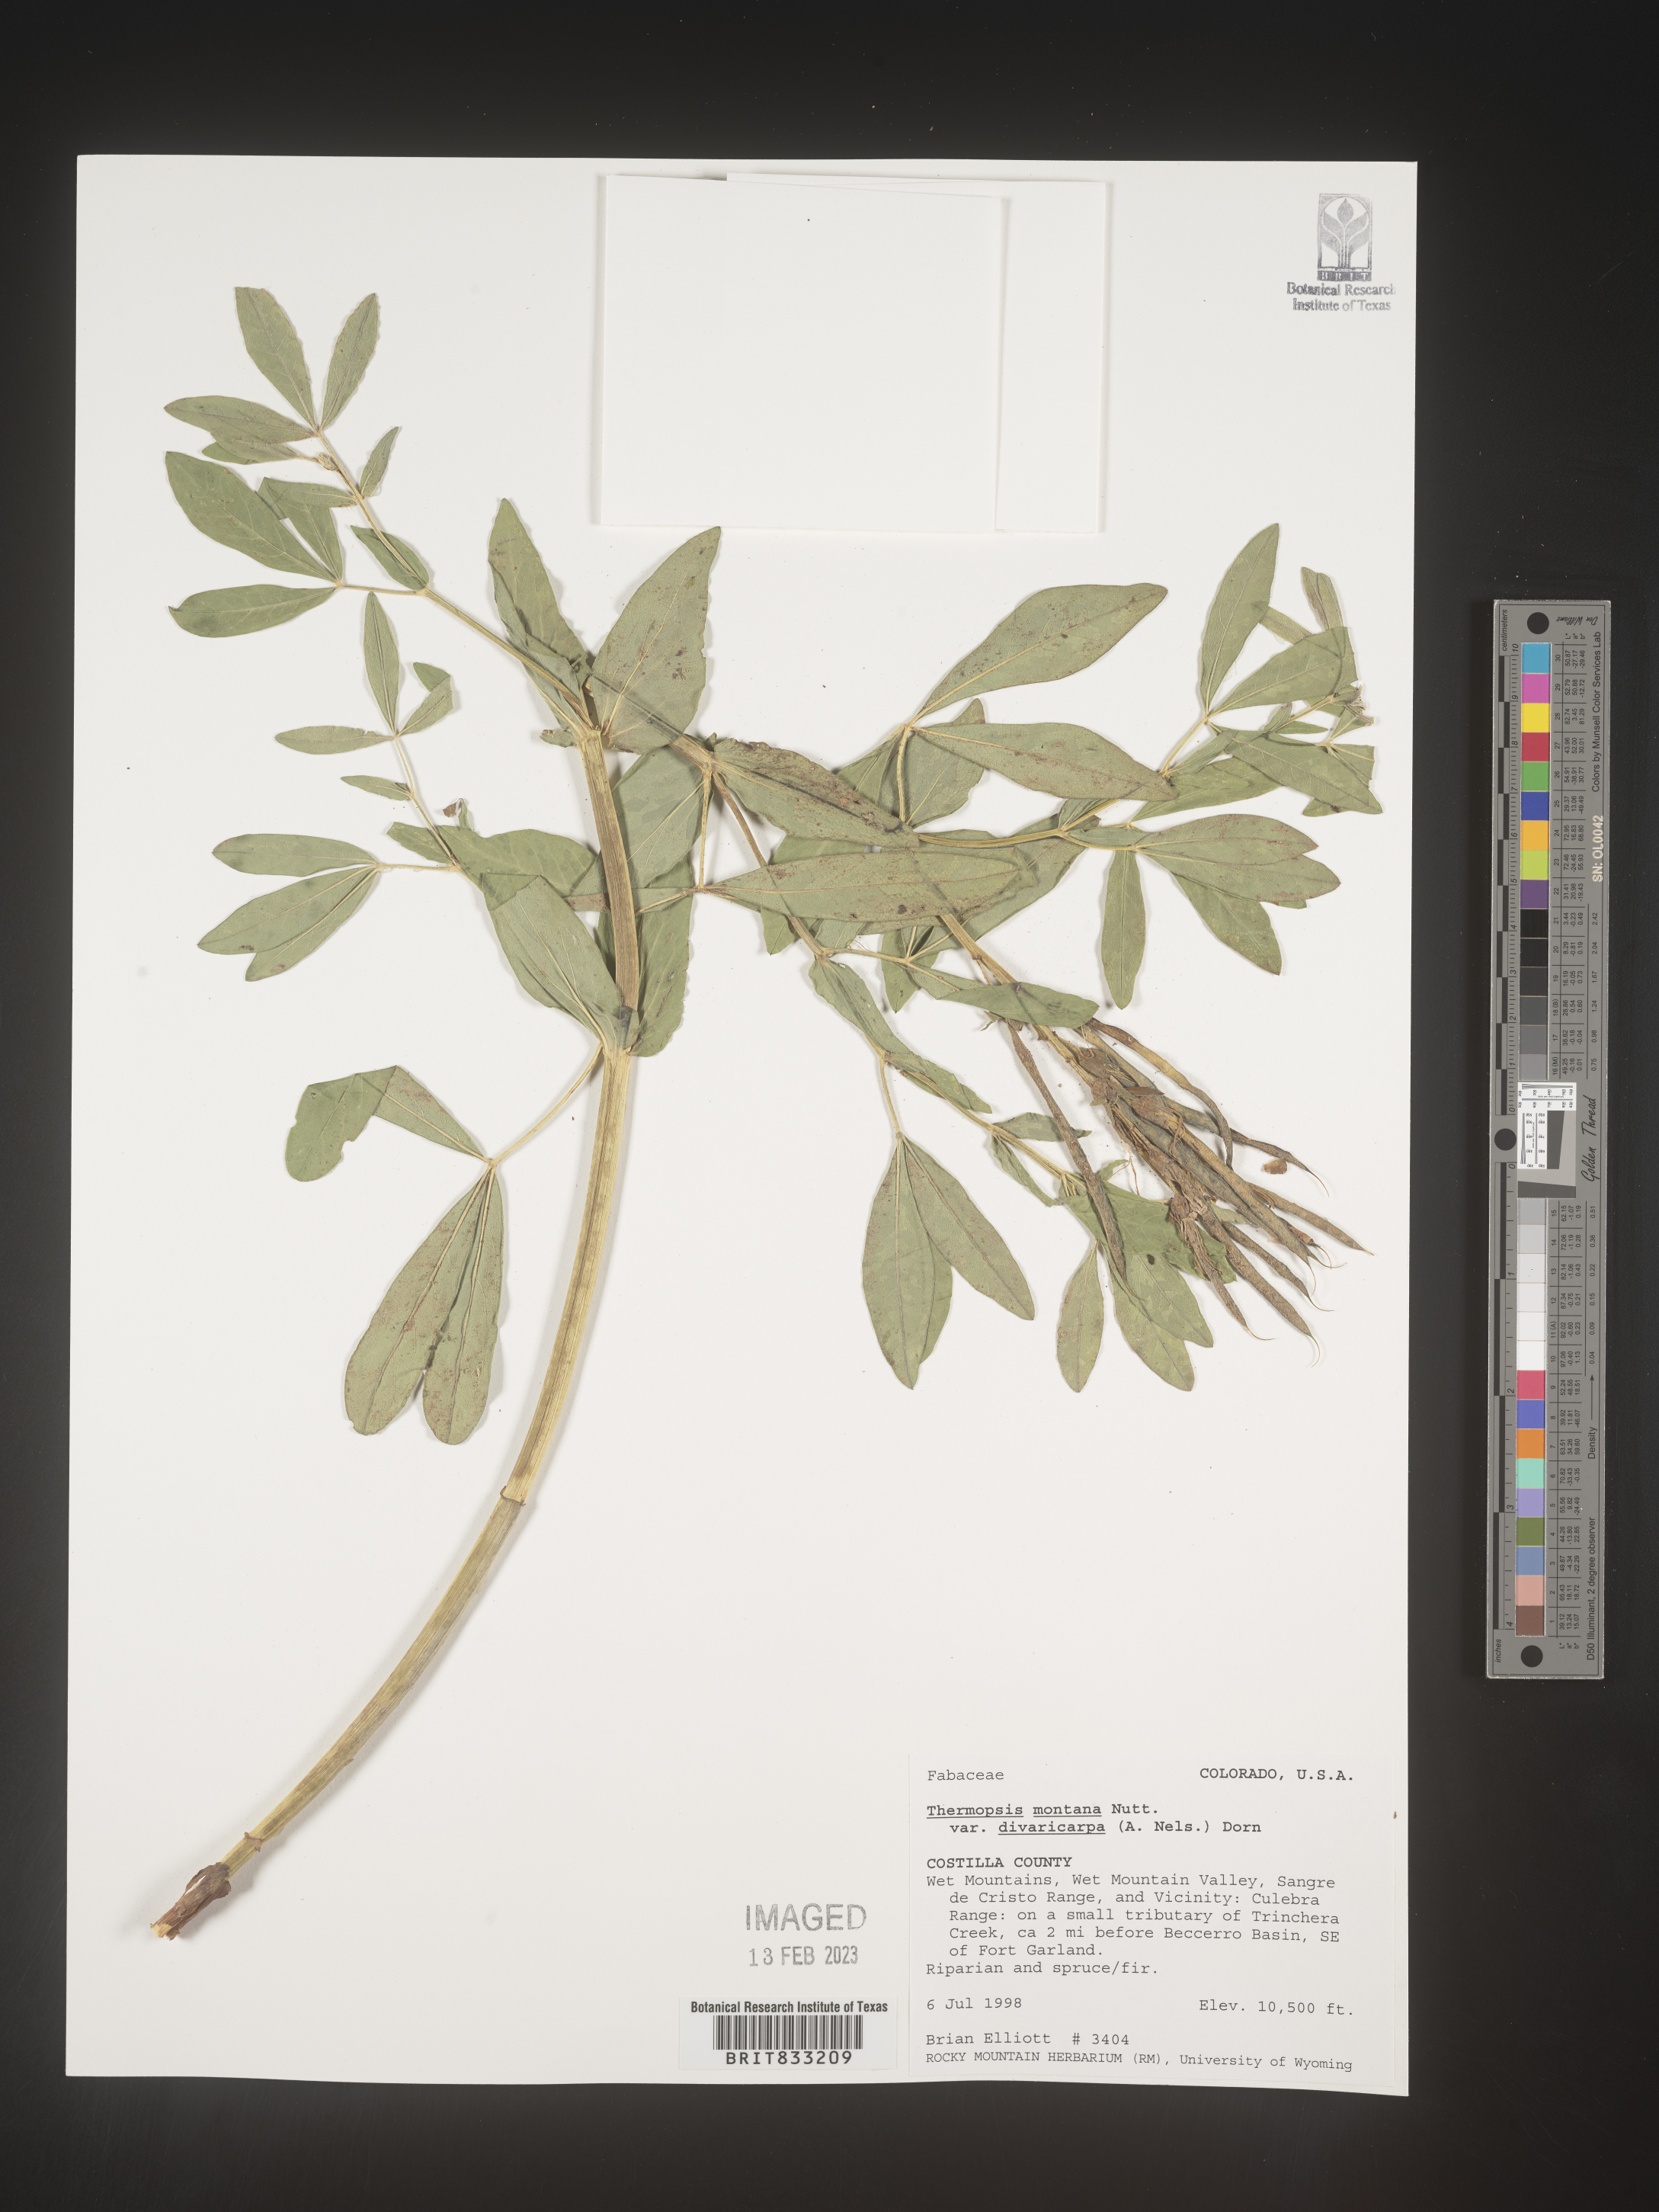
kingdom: Plantae
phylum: Tracheophyta
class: Magnoliopsida
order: Fabales
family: Fabaceae
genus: Thermopsis
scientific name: Thermopsis montana
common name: False lupin
